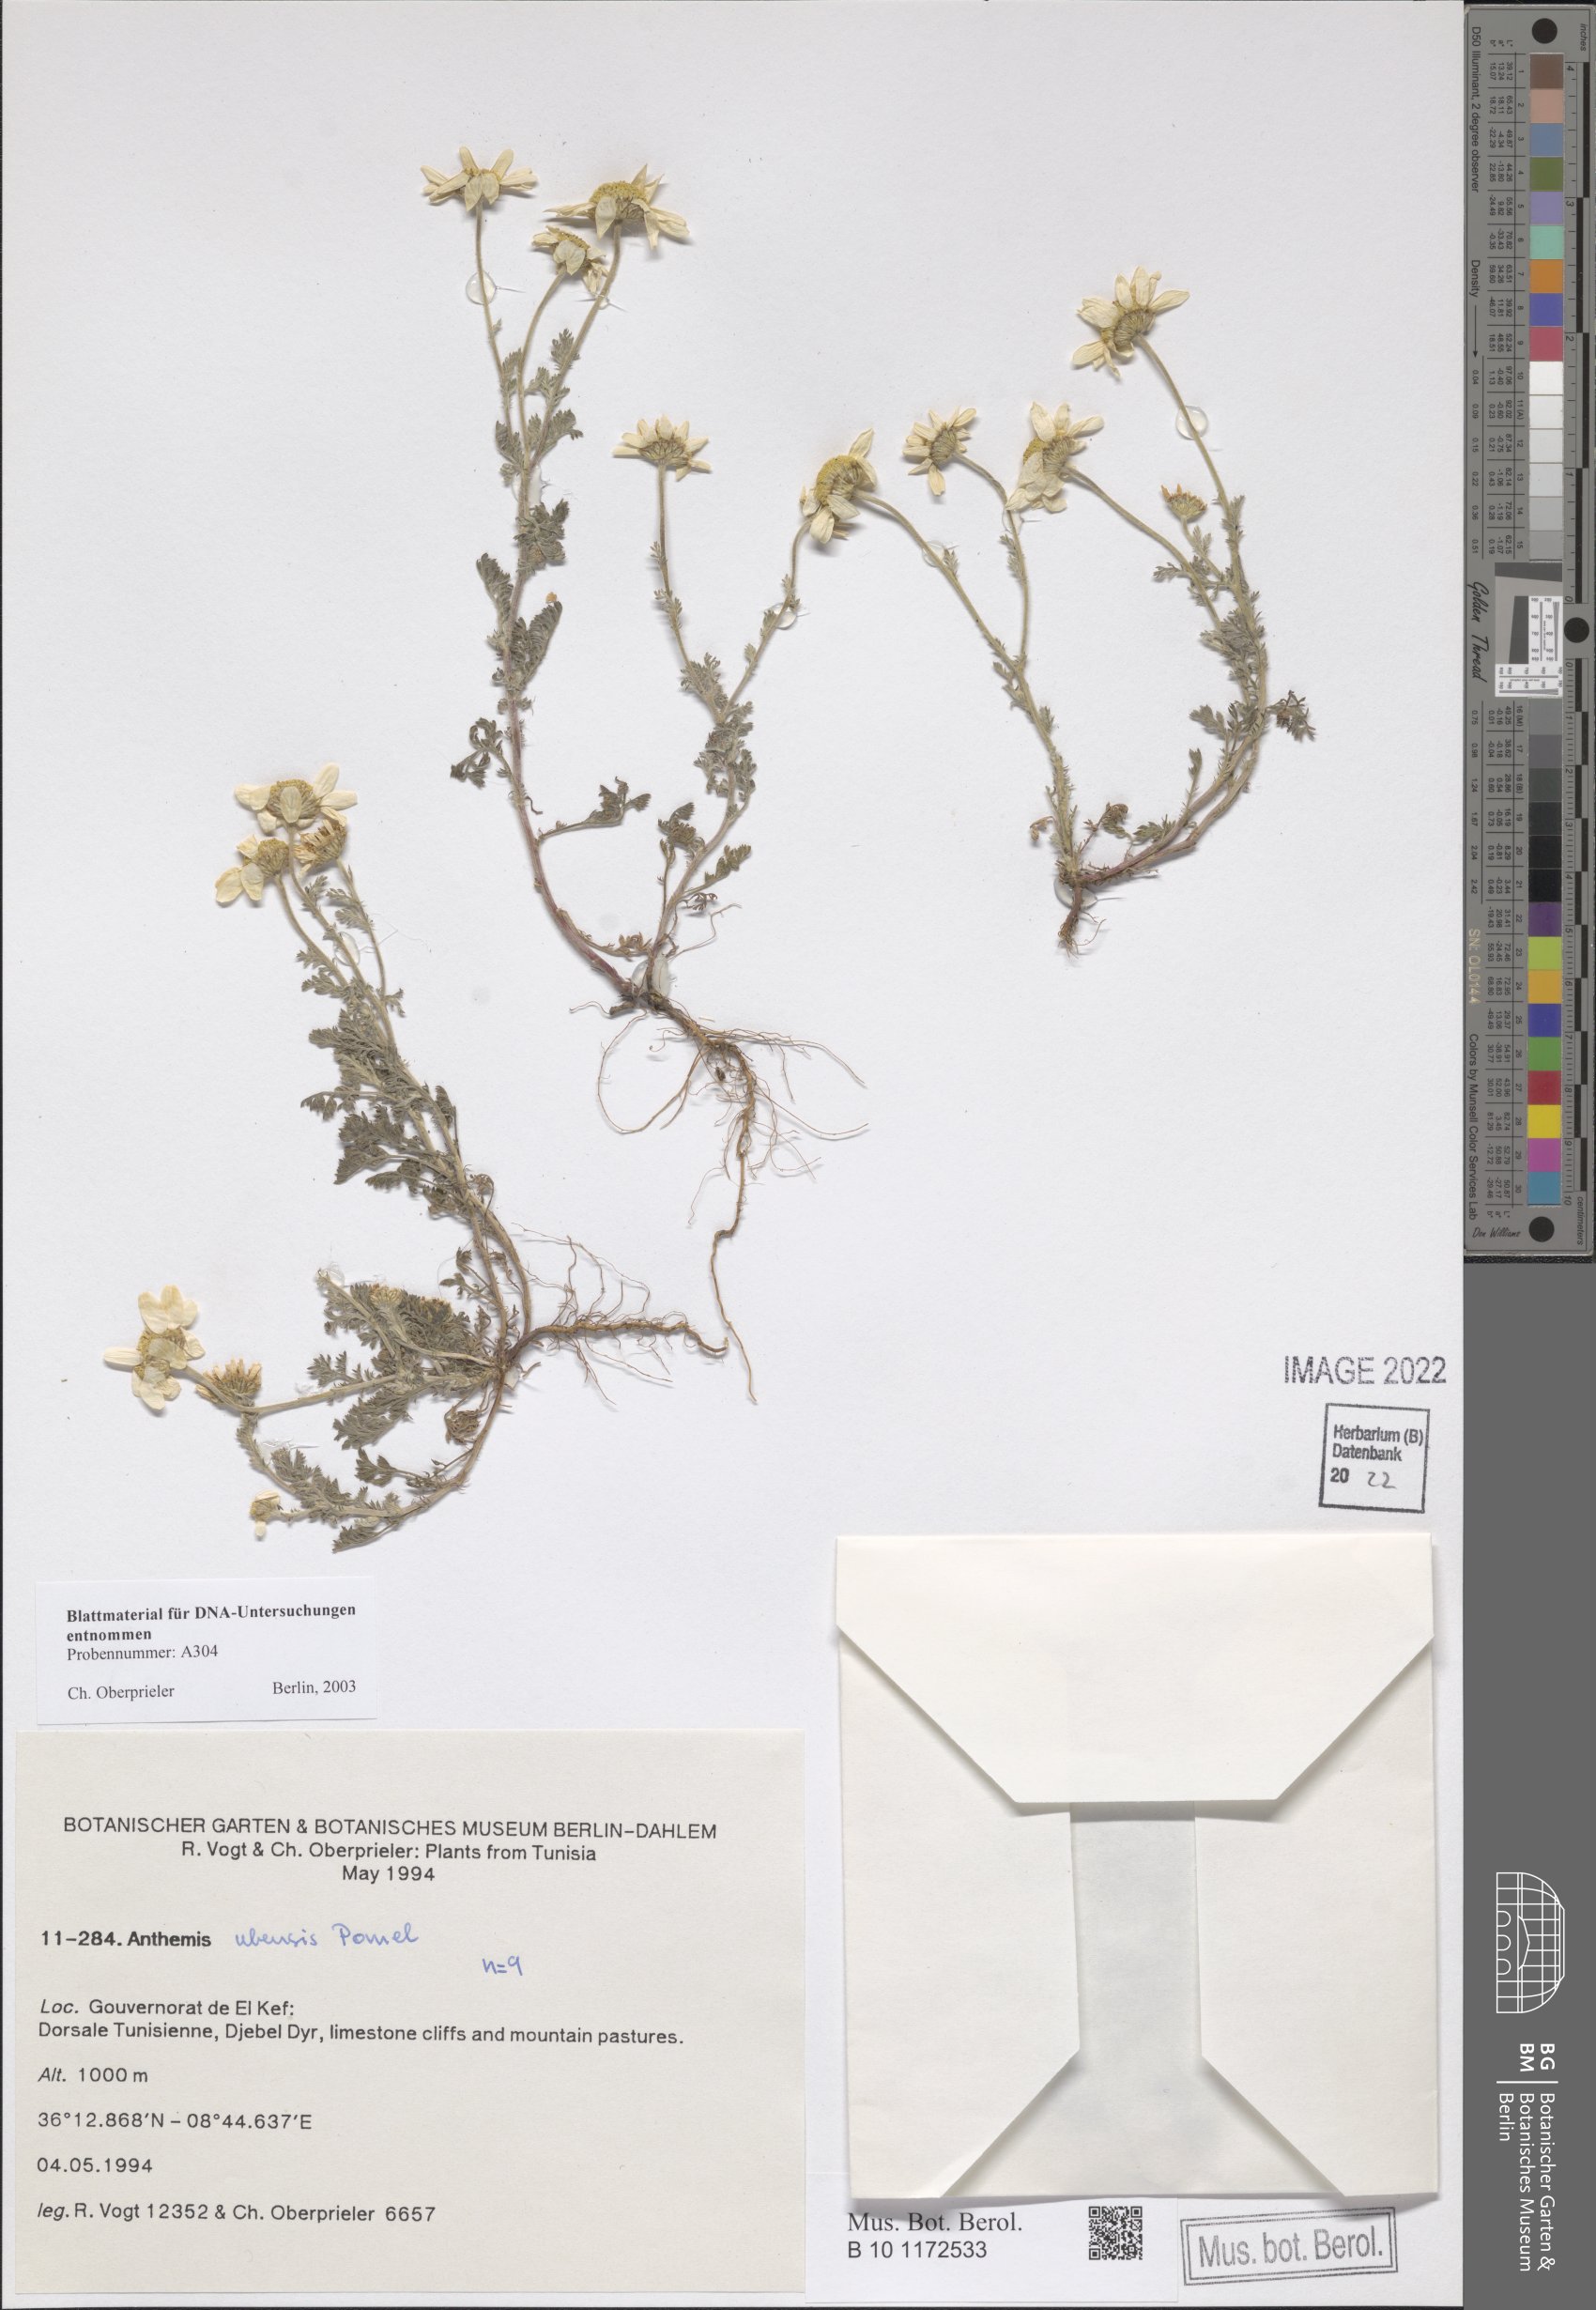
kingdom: Plantae
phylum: Tracheophyta
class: Magnoliopsida
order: Asterales
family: Asteraceae
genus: Anthemis
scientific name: Anthemis ubensis
